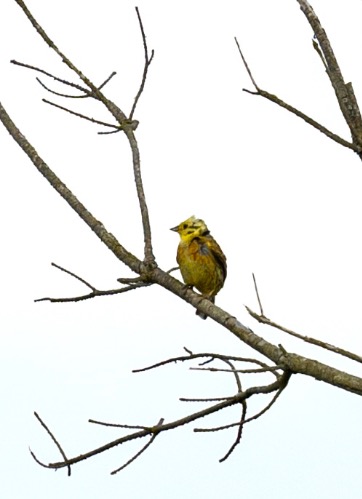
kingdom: Animalia
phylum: Chordata
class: Aves
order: Passeriformes
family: Emberizidae
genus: Emberiza
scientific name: Emberiza citrinella
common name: Gulspurv
